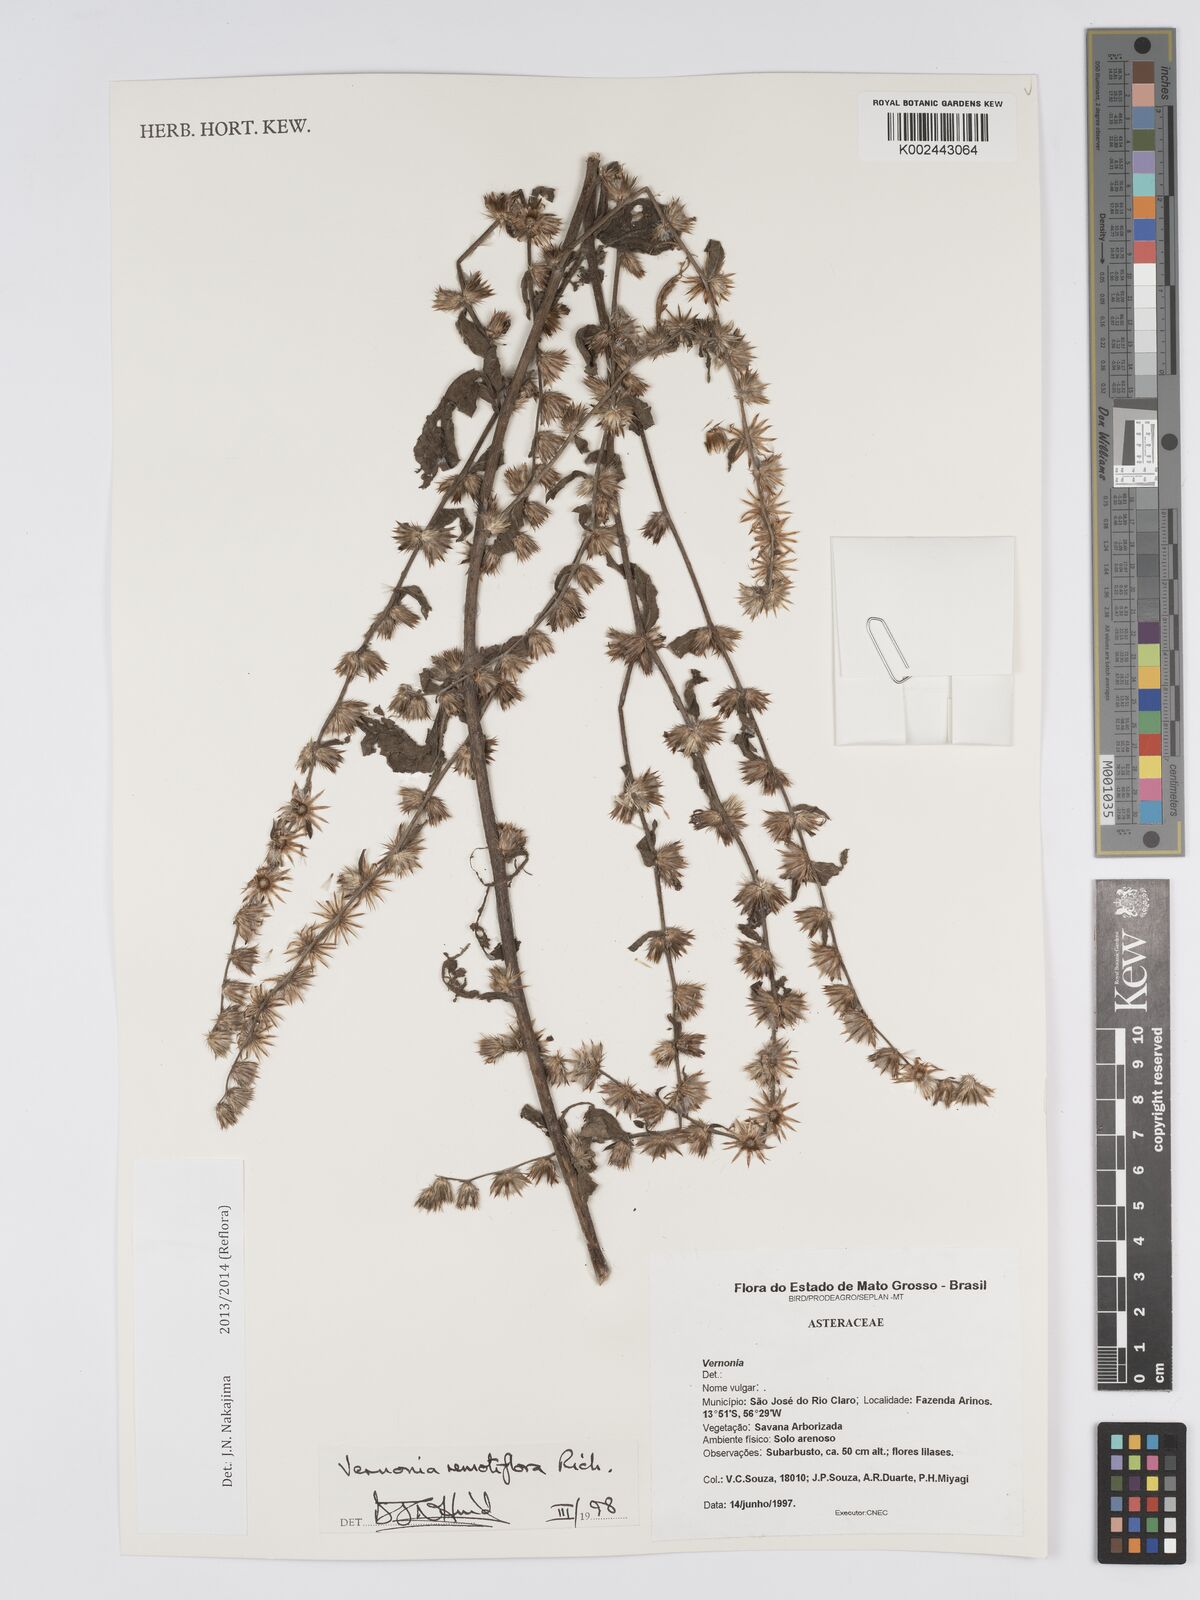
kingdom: Plantae
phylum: Tracheophyta
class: Magnoliopsida
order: Asterales
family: Asteraceae
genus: Lepidaploa
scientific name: Lepidaploa remotiflora
